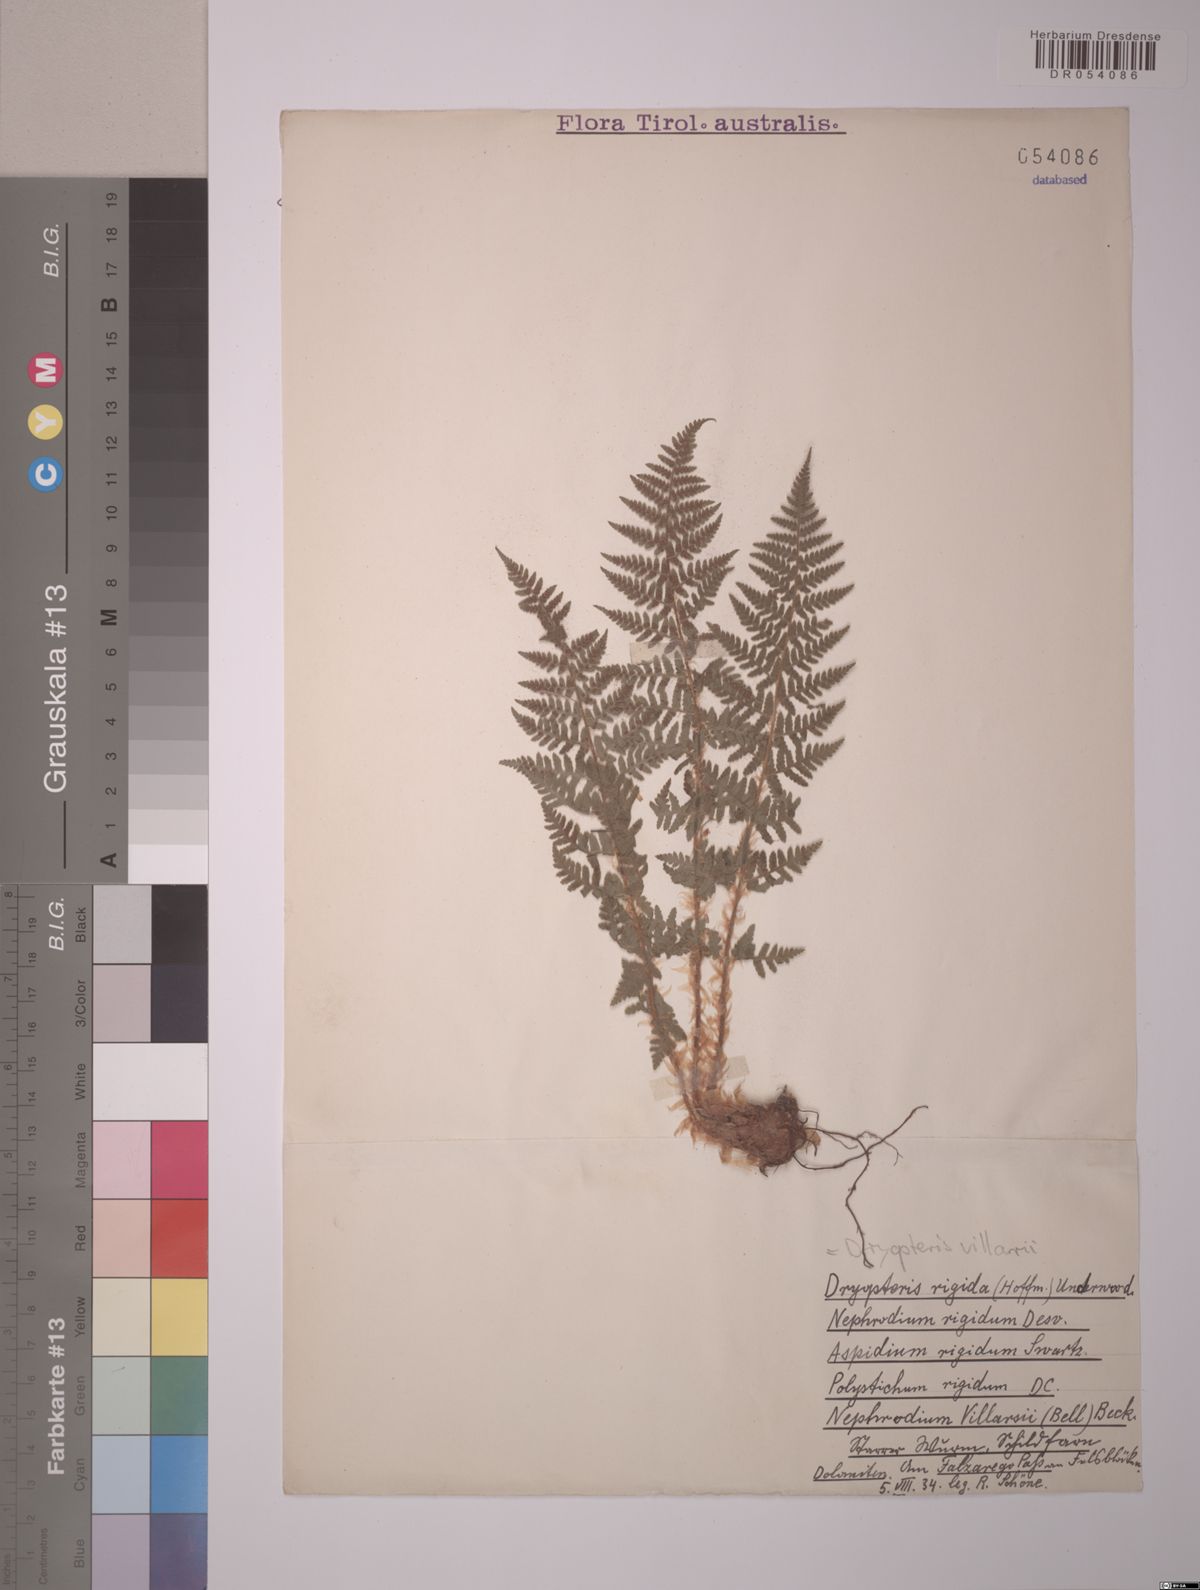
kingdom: Plantae
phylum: Tracheophyta
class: Polypodiopsida
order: Polypodiales
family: Dryopteridaceae
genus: Dryopteris
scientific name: Dryopteris villarii
